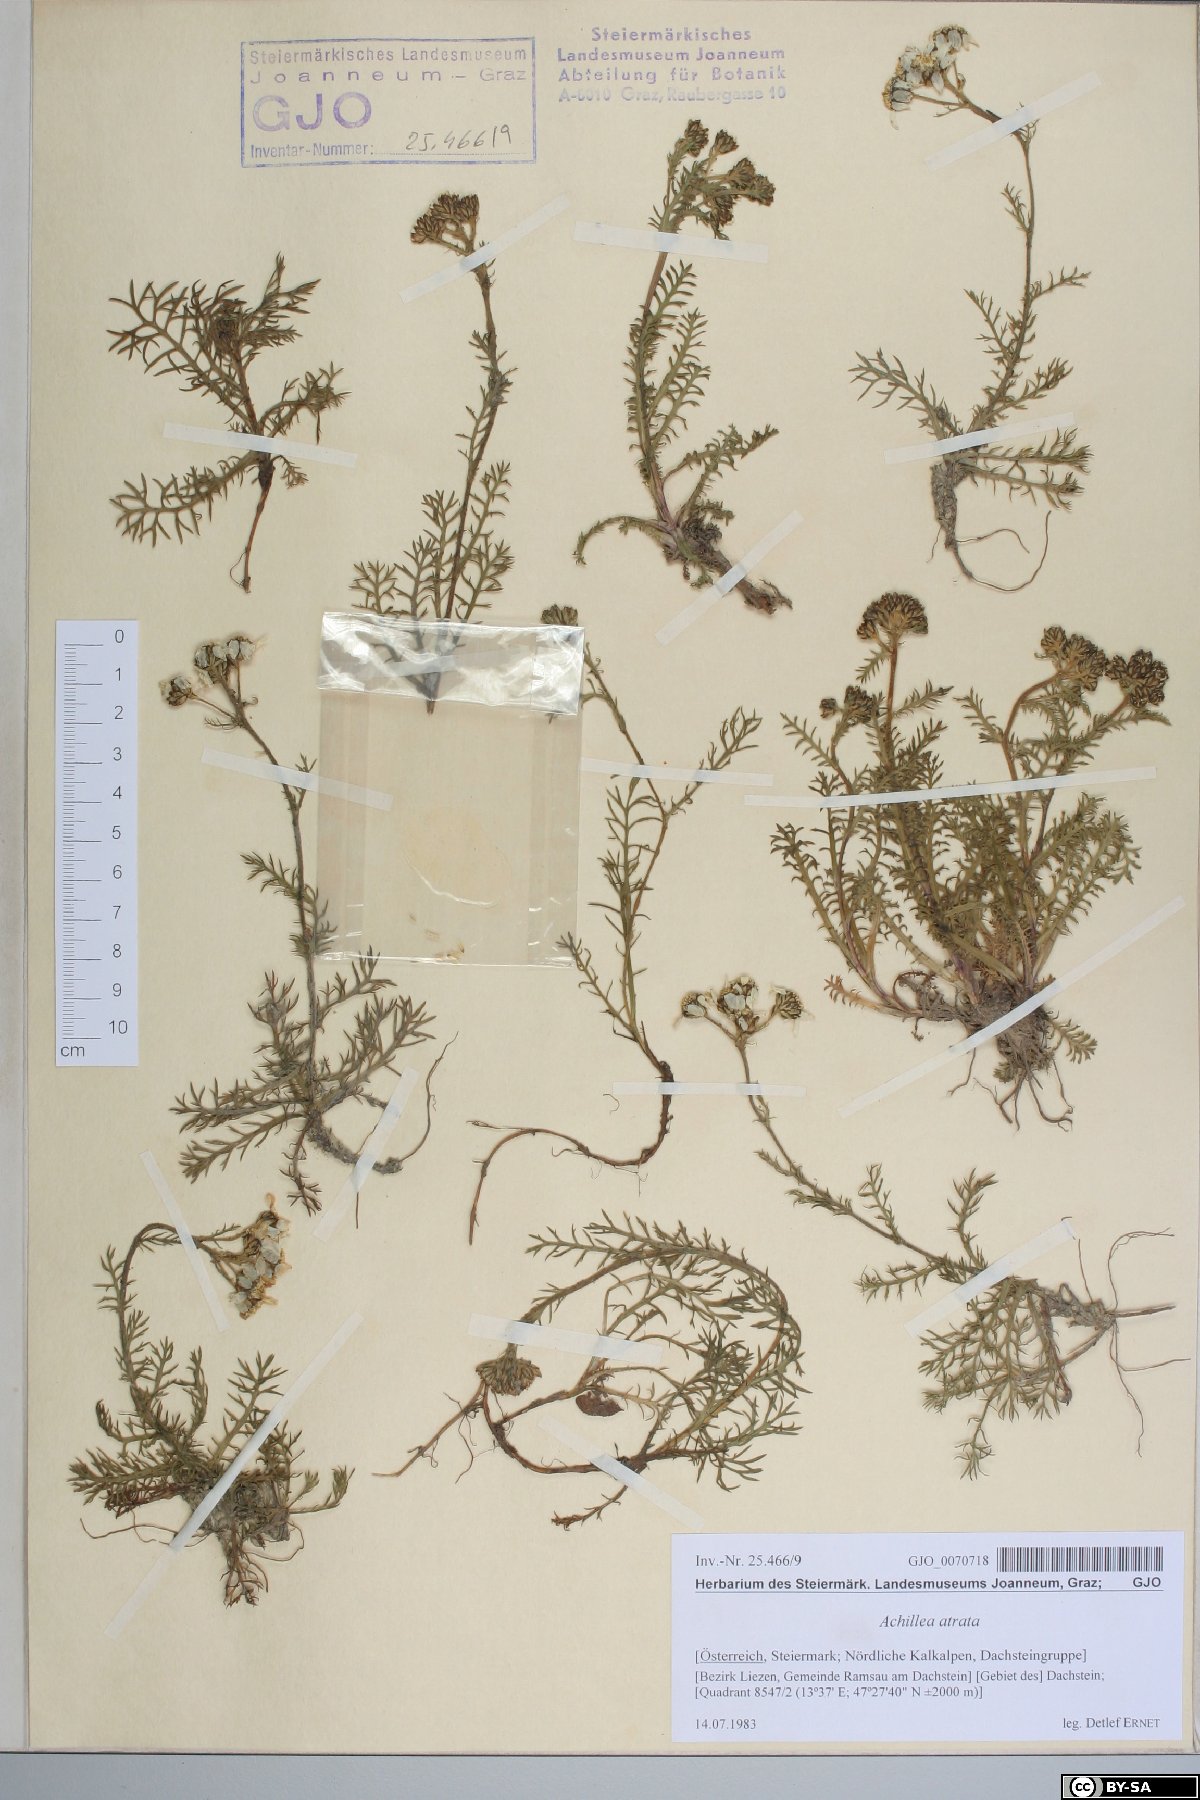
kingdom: Plantae
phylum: Tracheophyta
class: Magnoliopsida
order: Asterales
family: Asteraceae
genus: Achillea
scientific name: Achillea atrata
